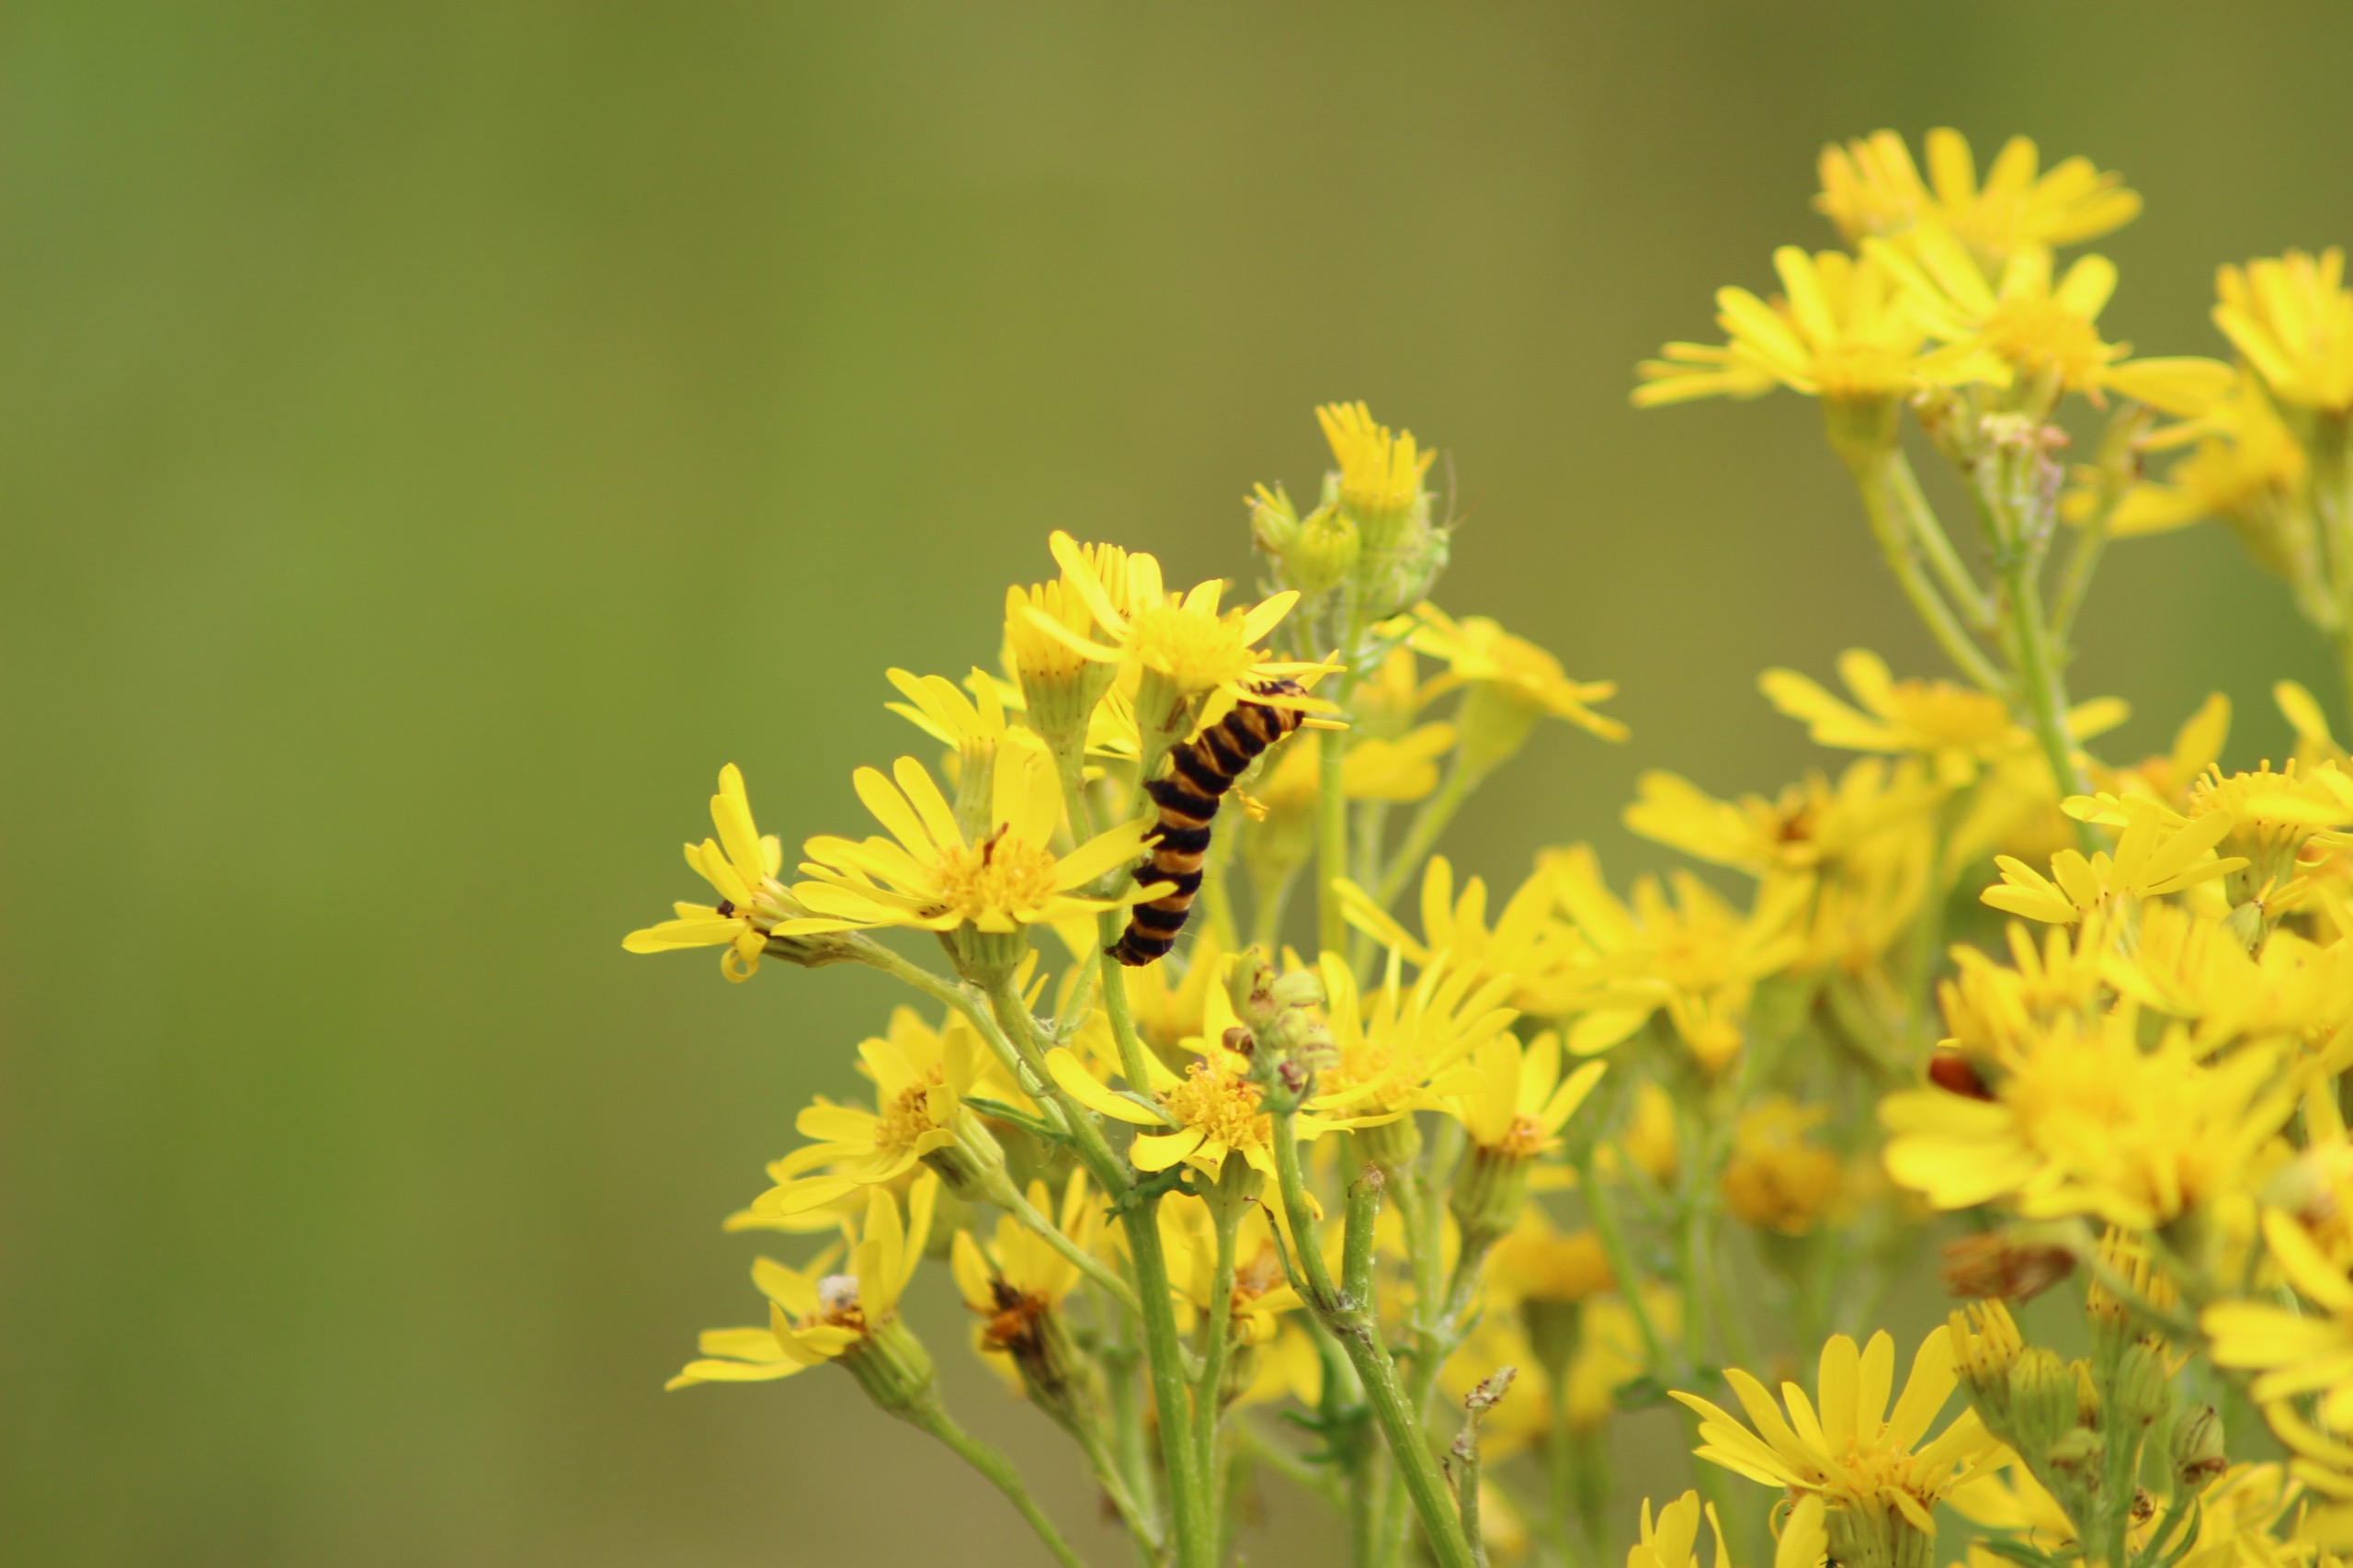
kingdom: Animalia
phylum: Arthropoda
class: Insecta
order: Lepidoptera
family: Erebidae
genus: Tyria
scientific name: Tyria jacobaeae
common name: Blodplet
